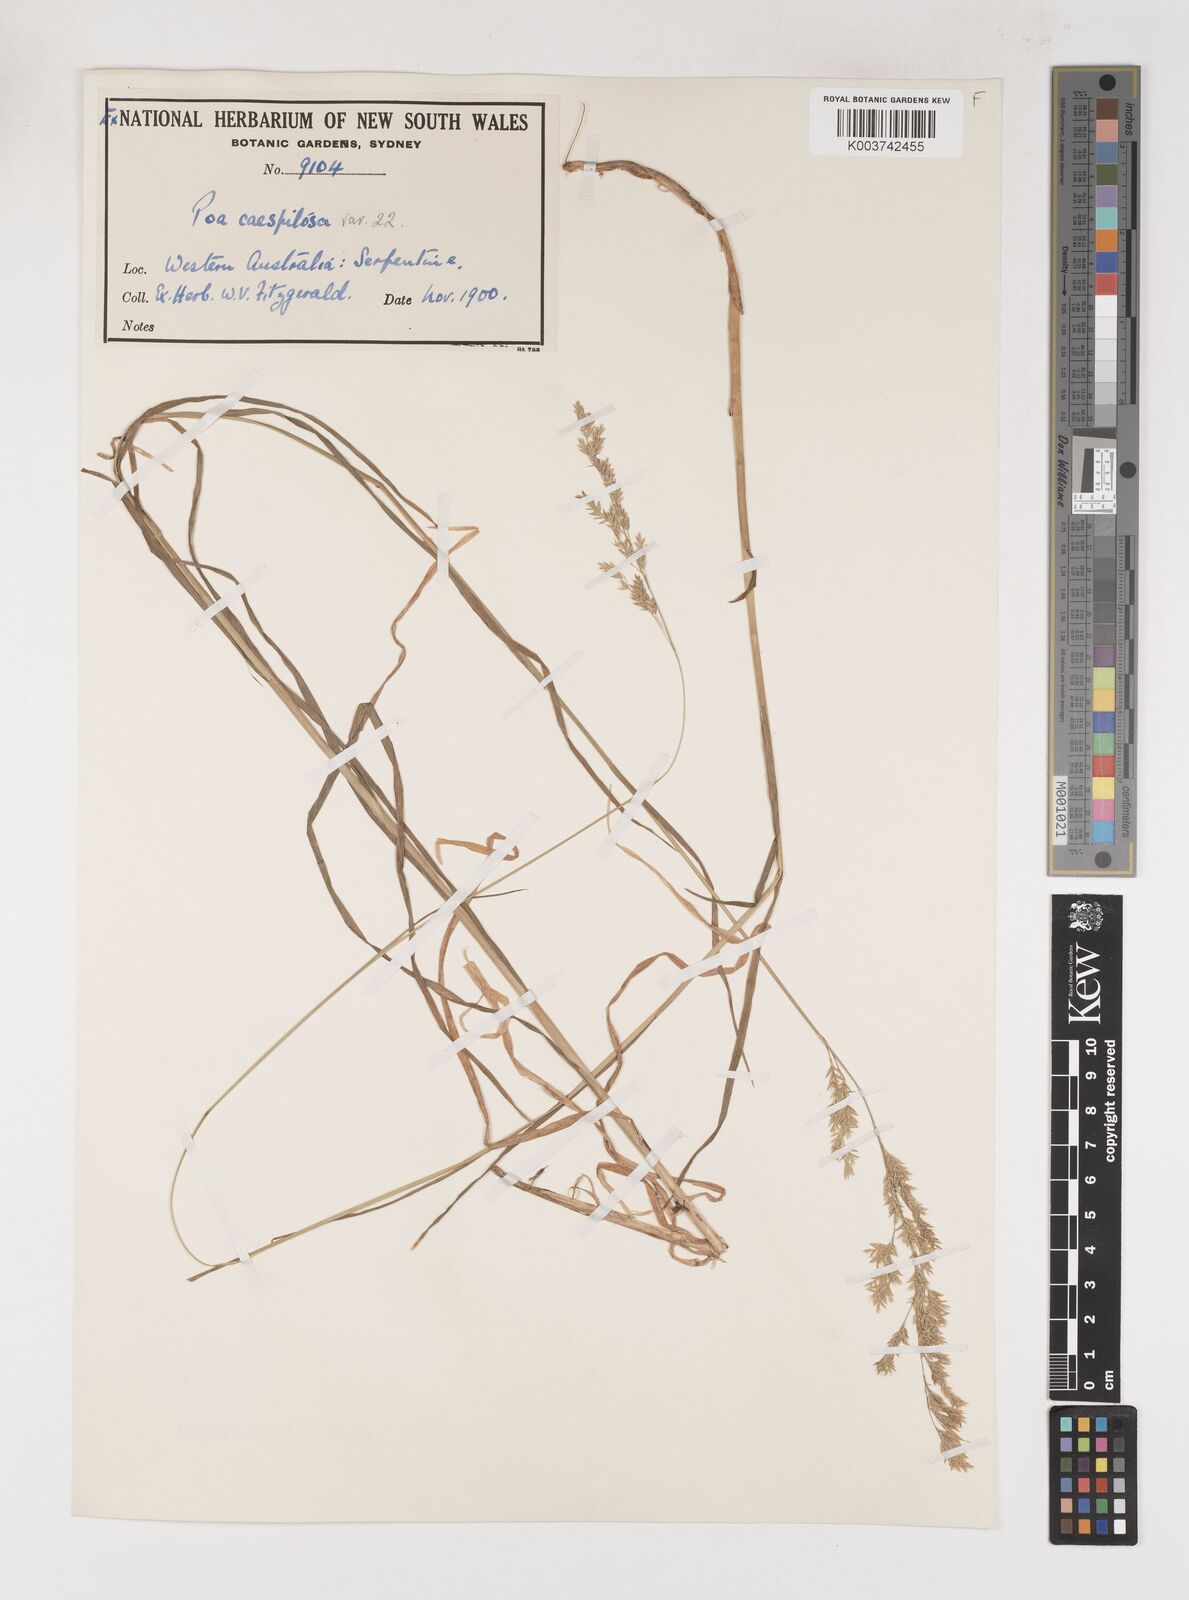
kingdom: Plantae
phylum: Tracheophyta
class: Liliopsida
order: Poales
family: Poaceae
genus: Poa
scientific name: Poa
